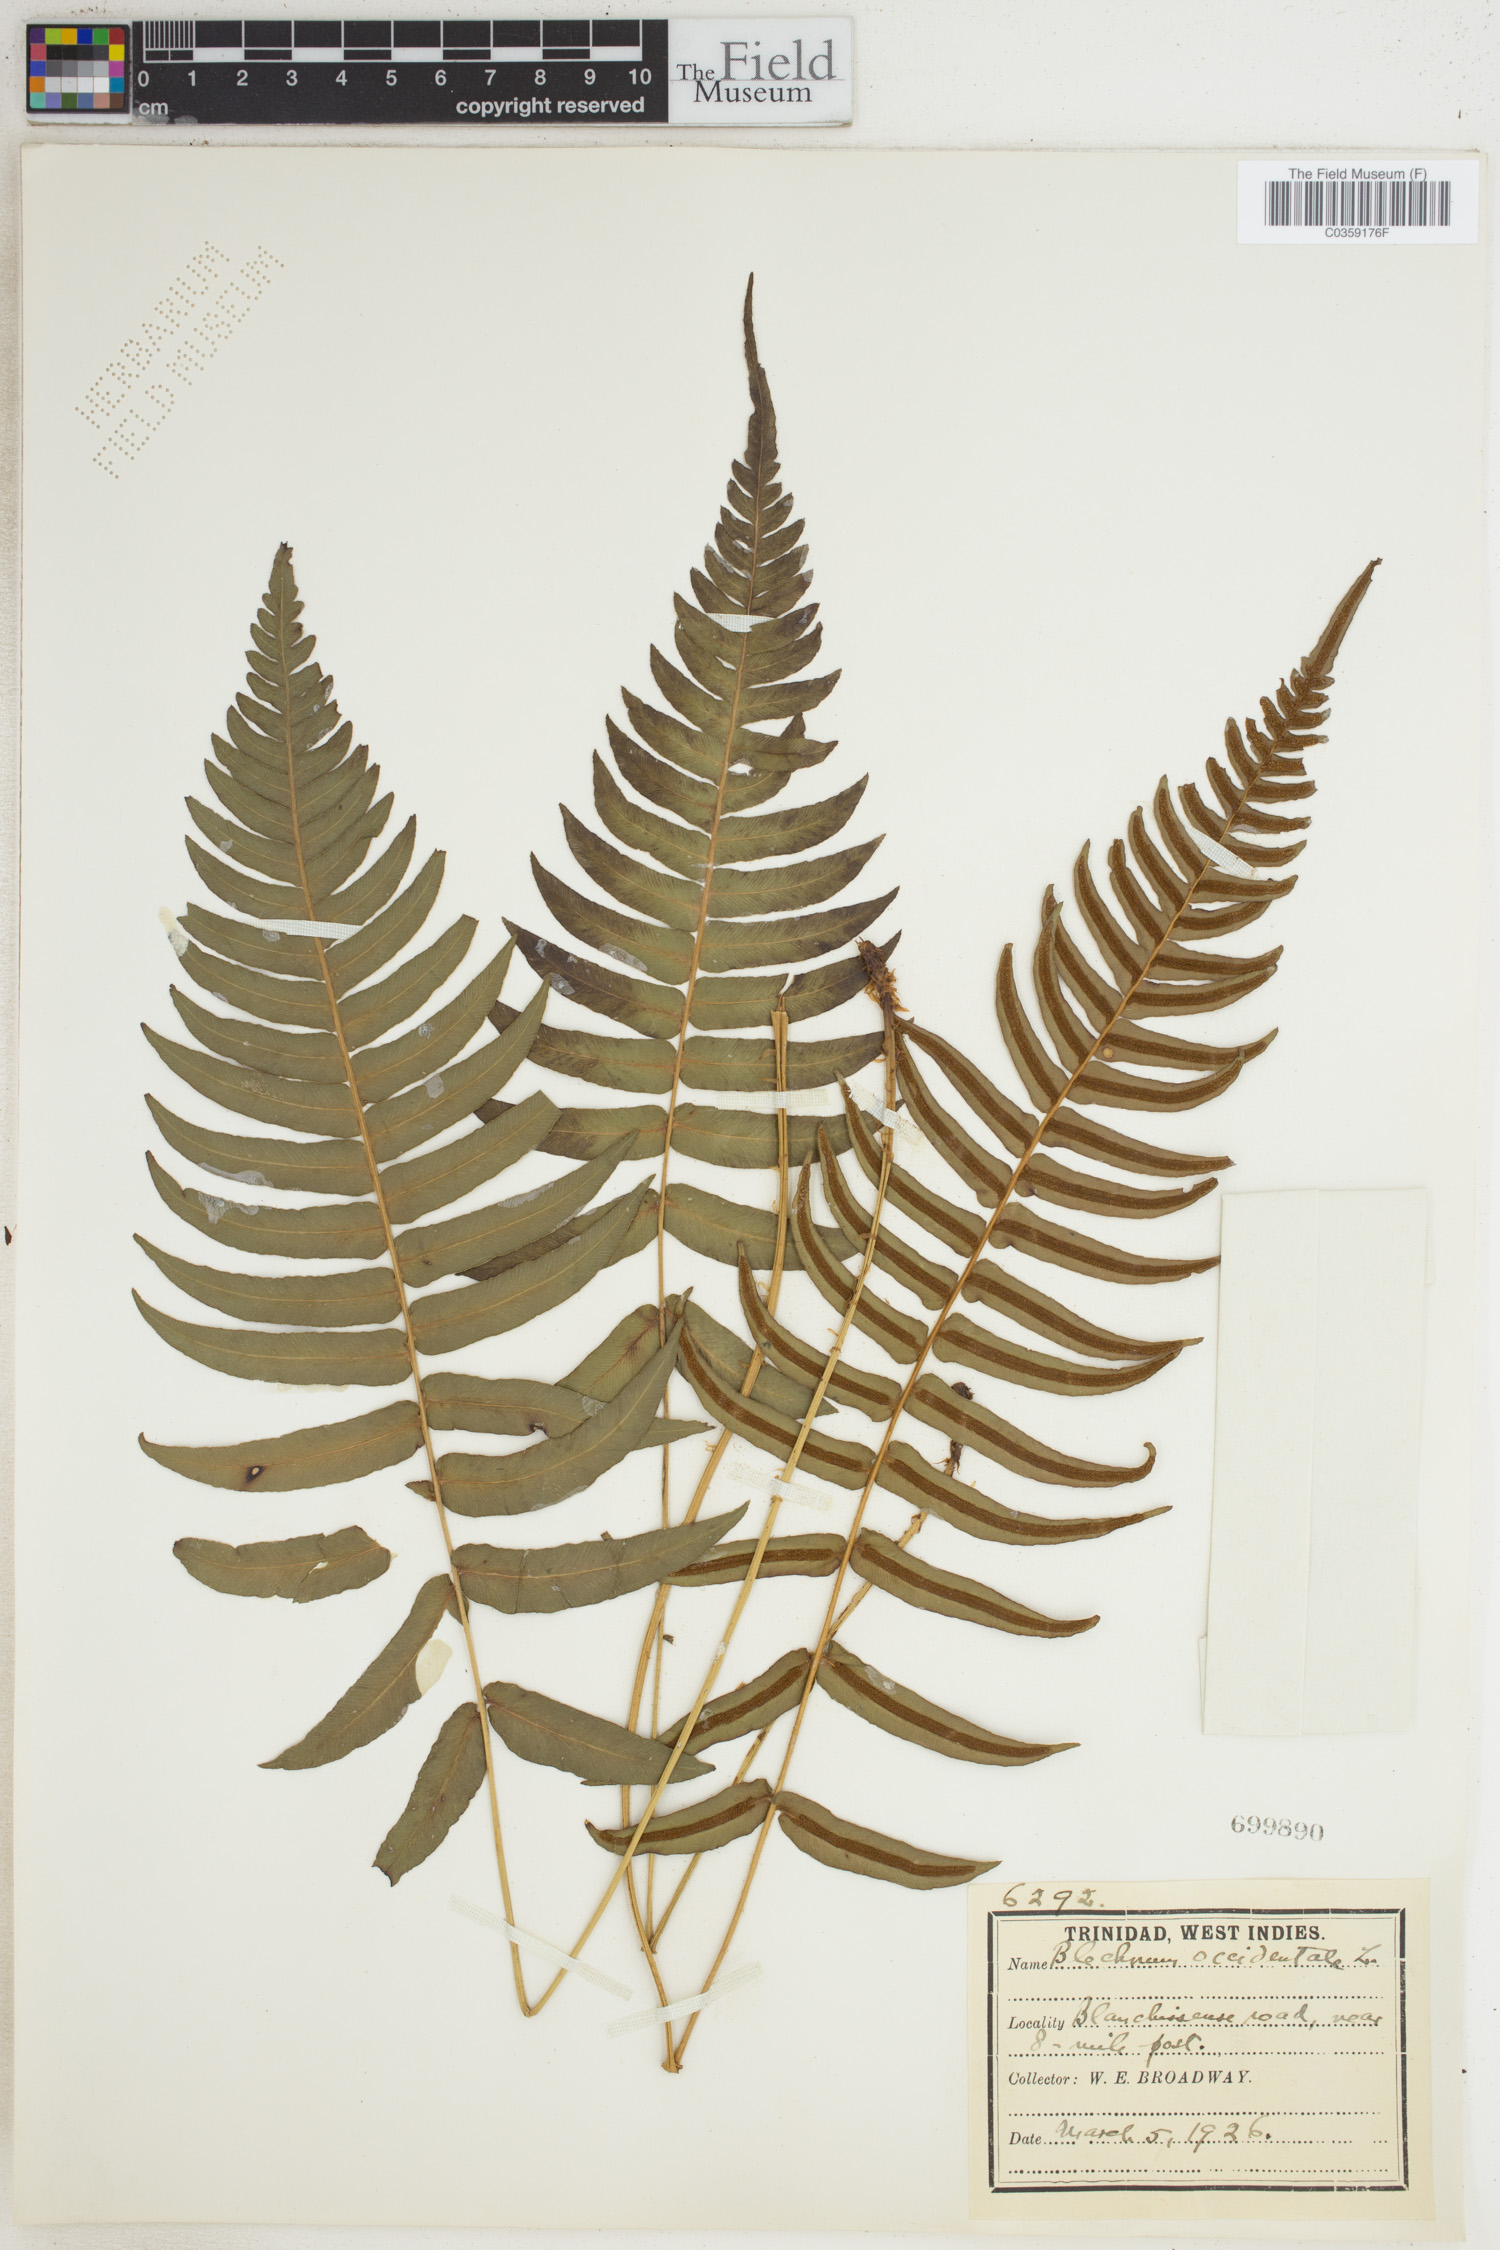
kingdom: Plantae
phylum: Tracheophyta
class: Polypodiopsida
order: Polypodiales
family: Blechnaceae
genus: Blechnum
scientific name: Blechnum occidentale
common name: Hammock fern
